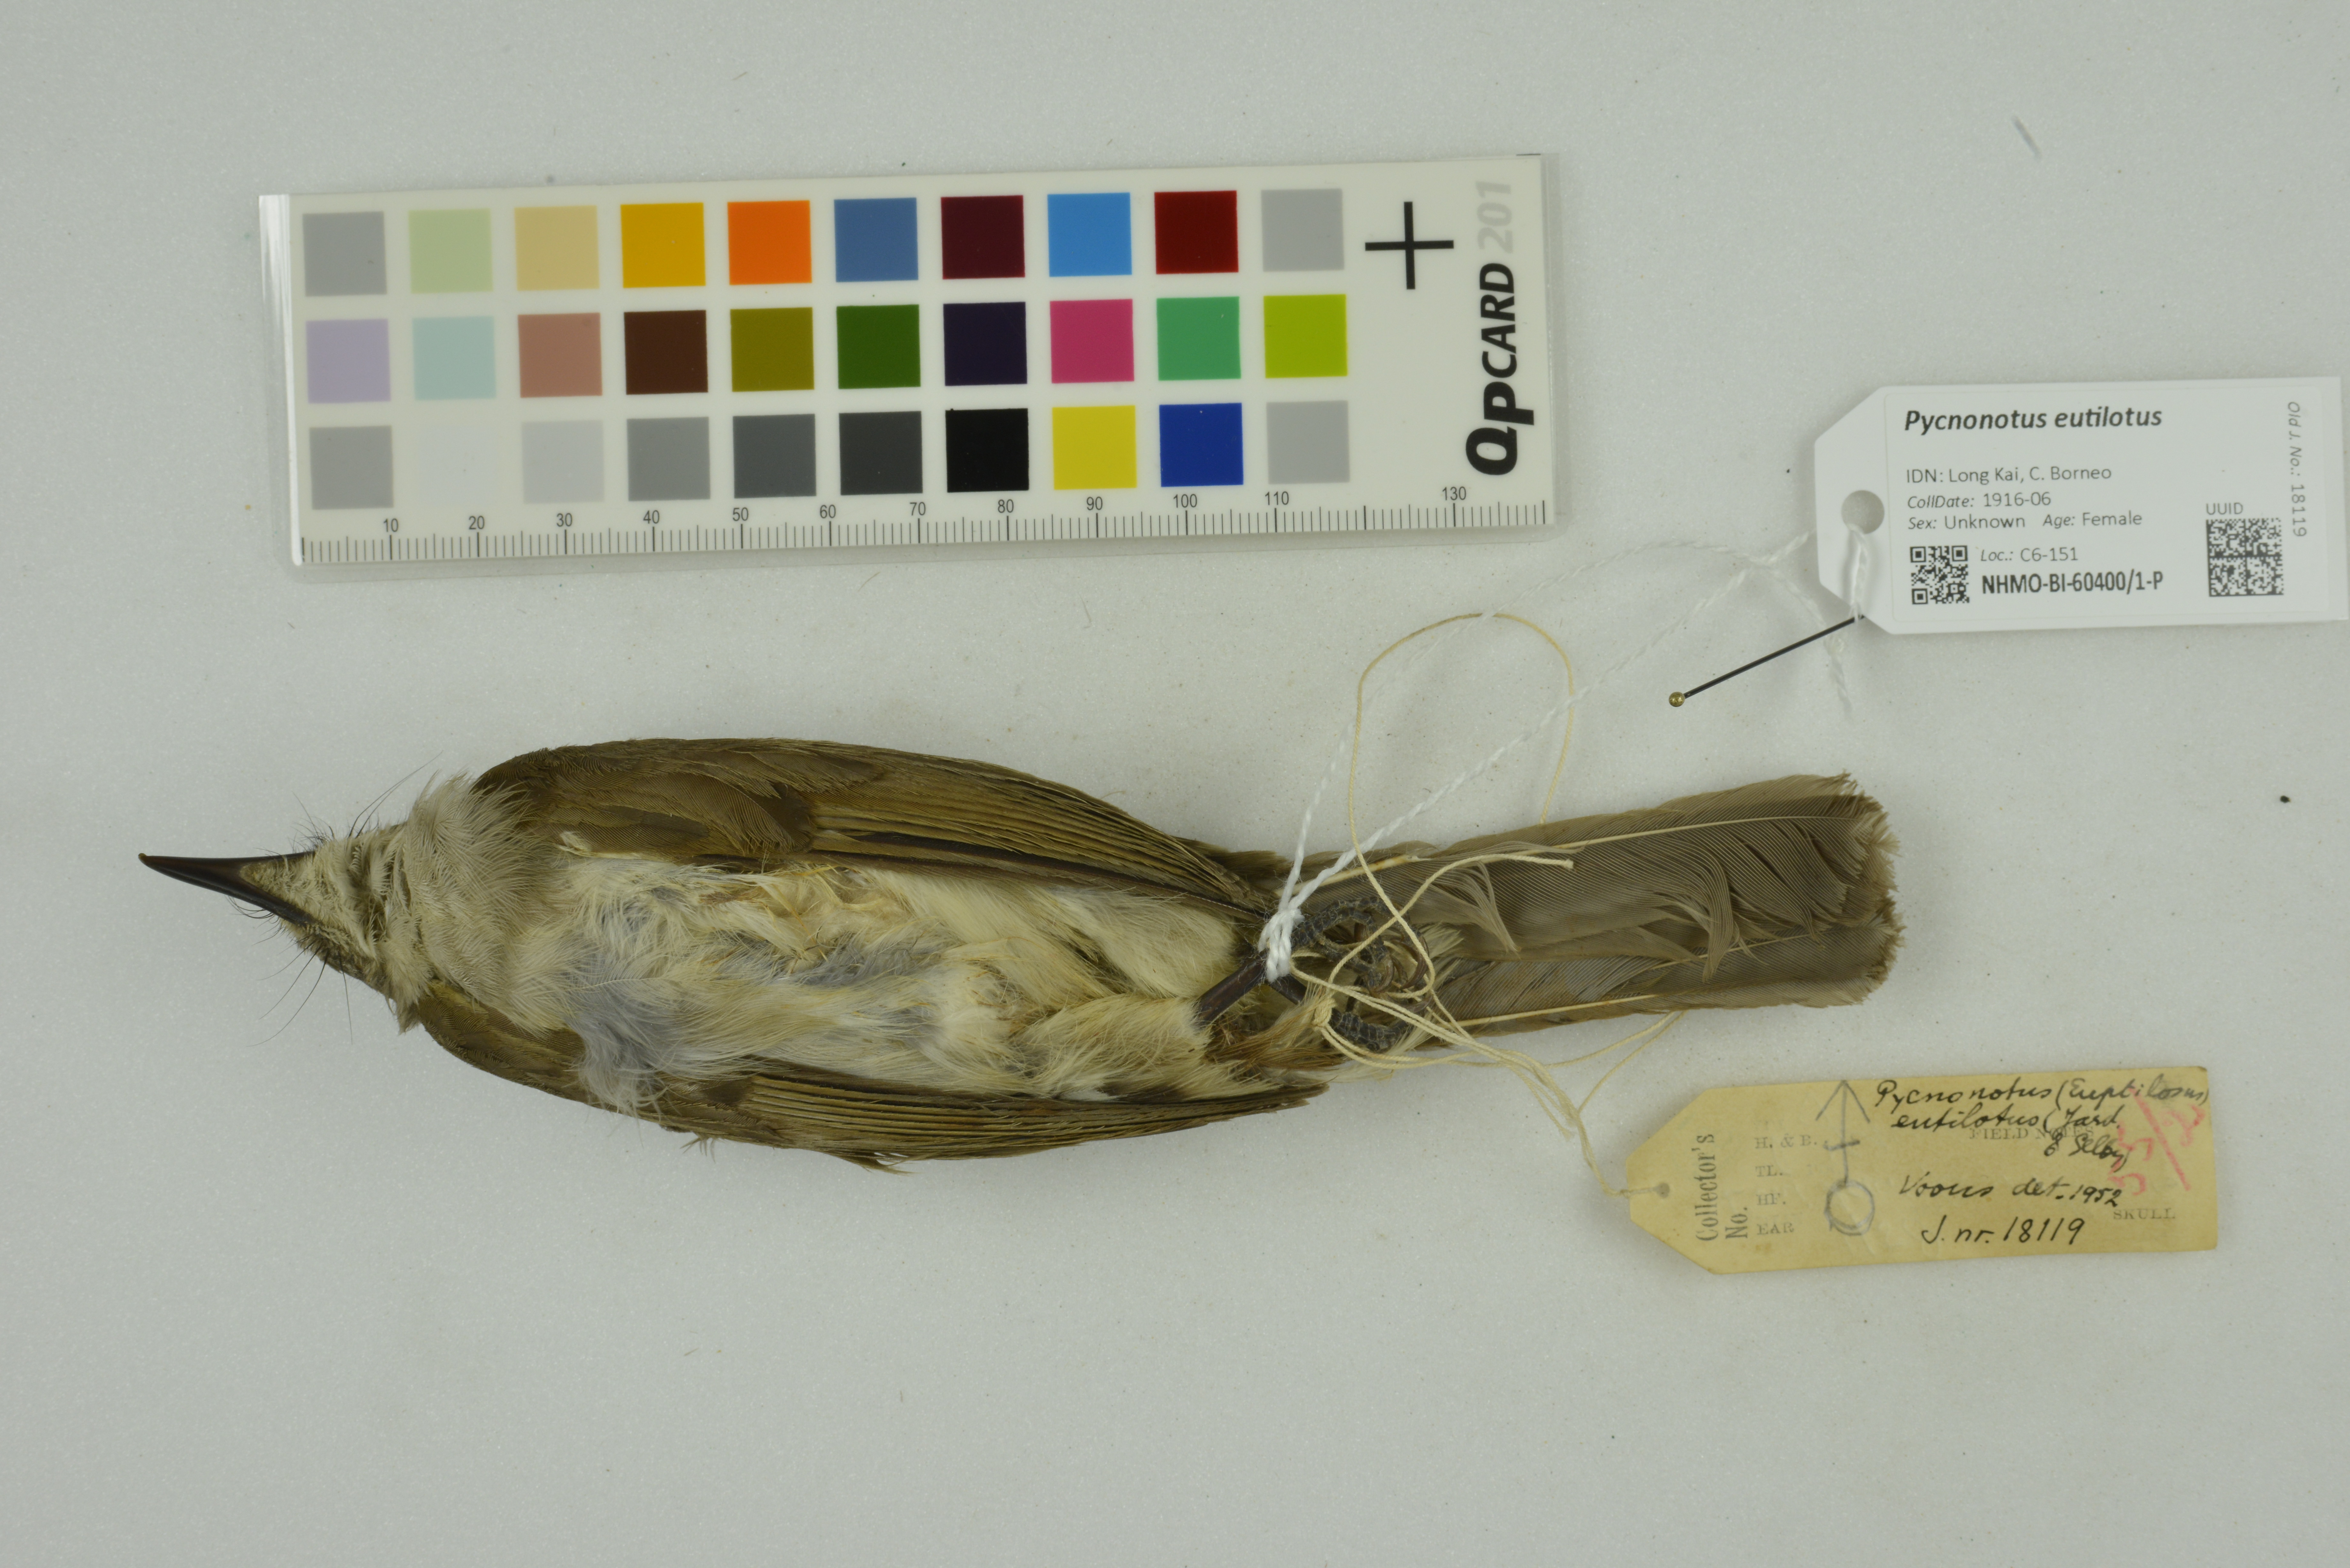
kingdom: Animalia
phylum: Chordata
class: Aves
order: Passeriformes
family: Pycnonotidae
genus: Pycnonotus
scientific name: Pycnonotus eutilotus
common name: Puff-backed bulbul
